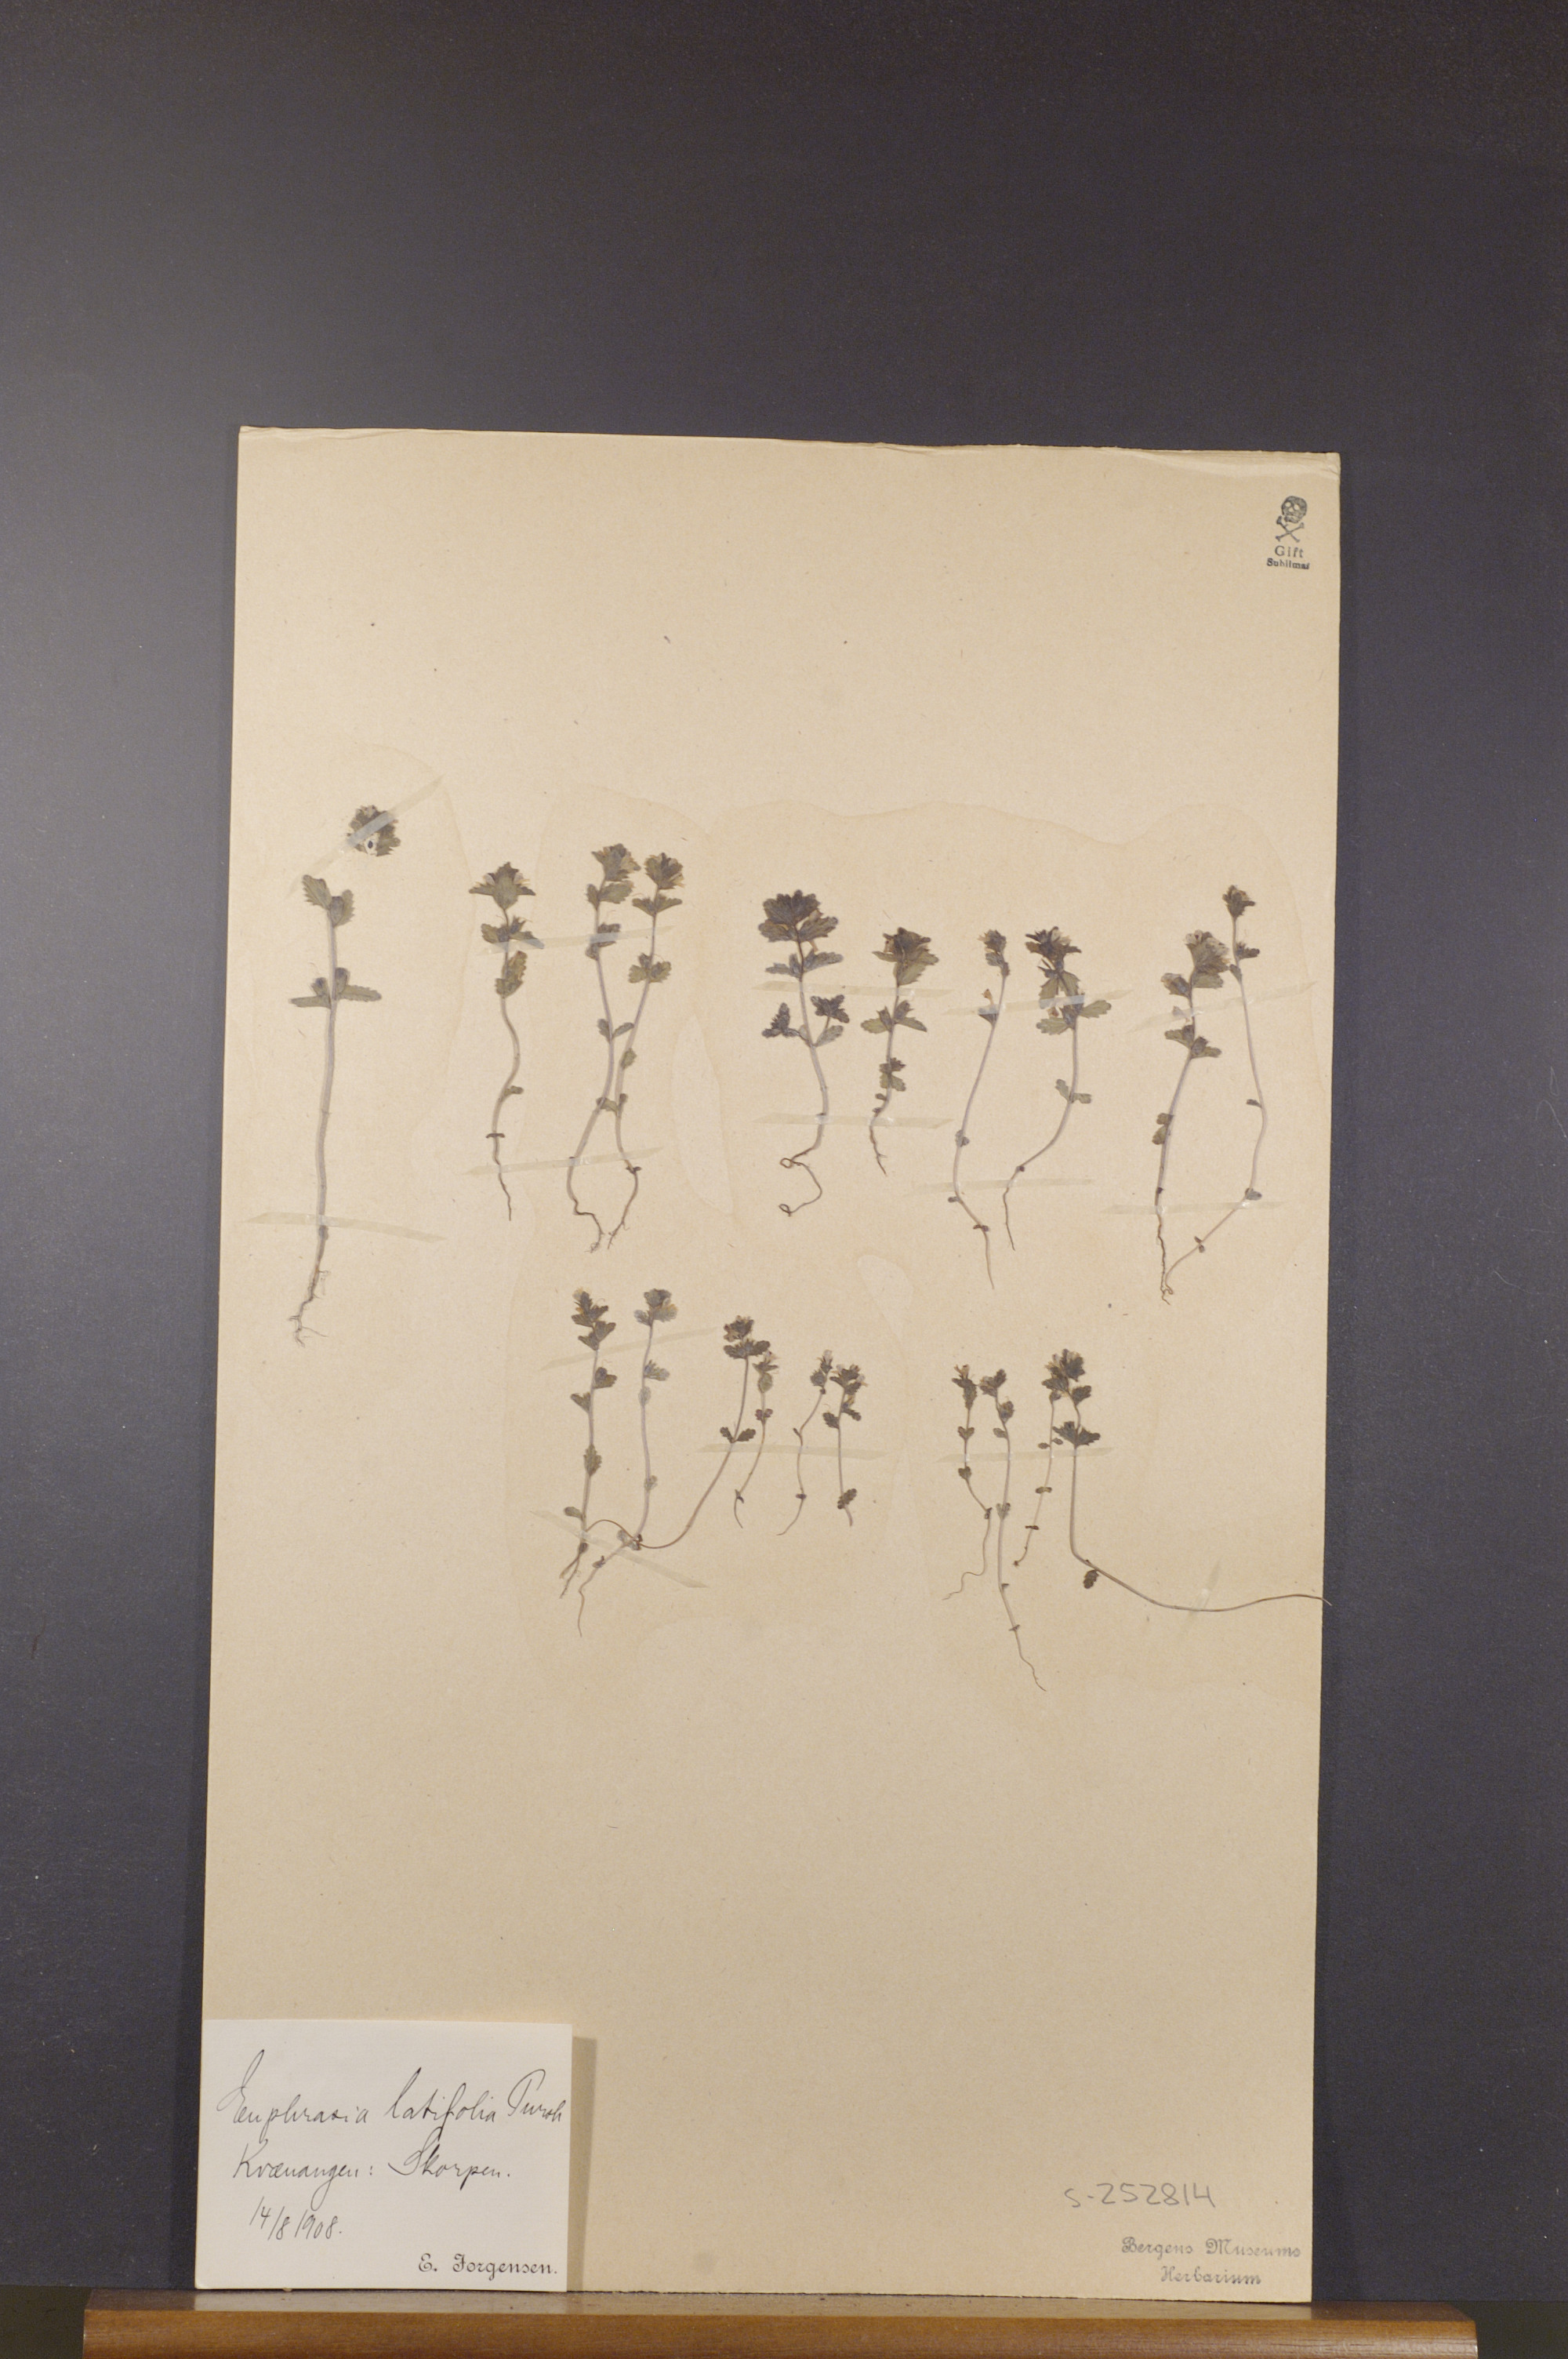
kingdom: Plantae
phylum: Tracheophyta
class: Magnoliopsida
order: Lamiales
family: Orobanchaceae
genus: Euphrasia
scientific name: Euphrasia wettsteinii
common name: Wettstein's eyebright
